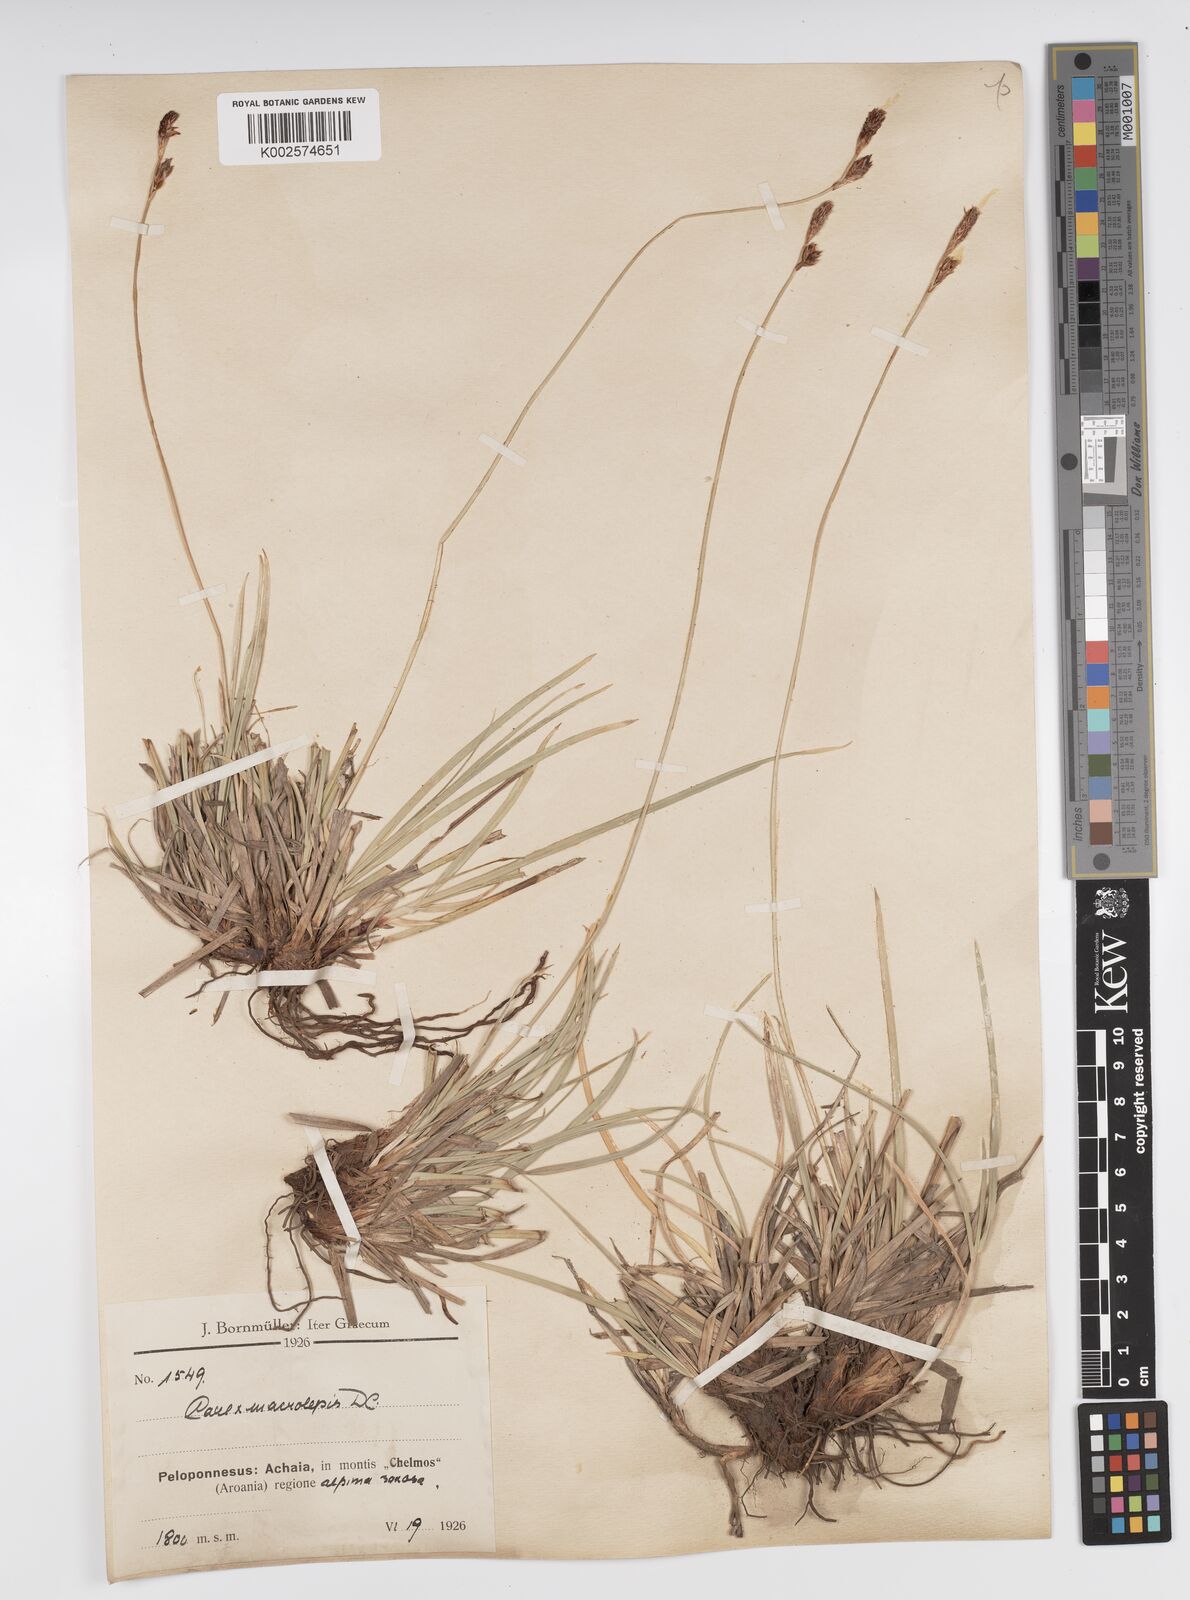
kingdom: Plantae
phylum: Tracheophyta
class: Liliopsida
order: Poales
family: Cyperaceae
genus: Carex
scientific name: Carex macrolepis
